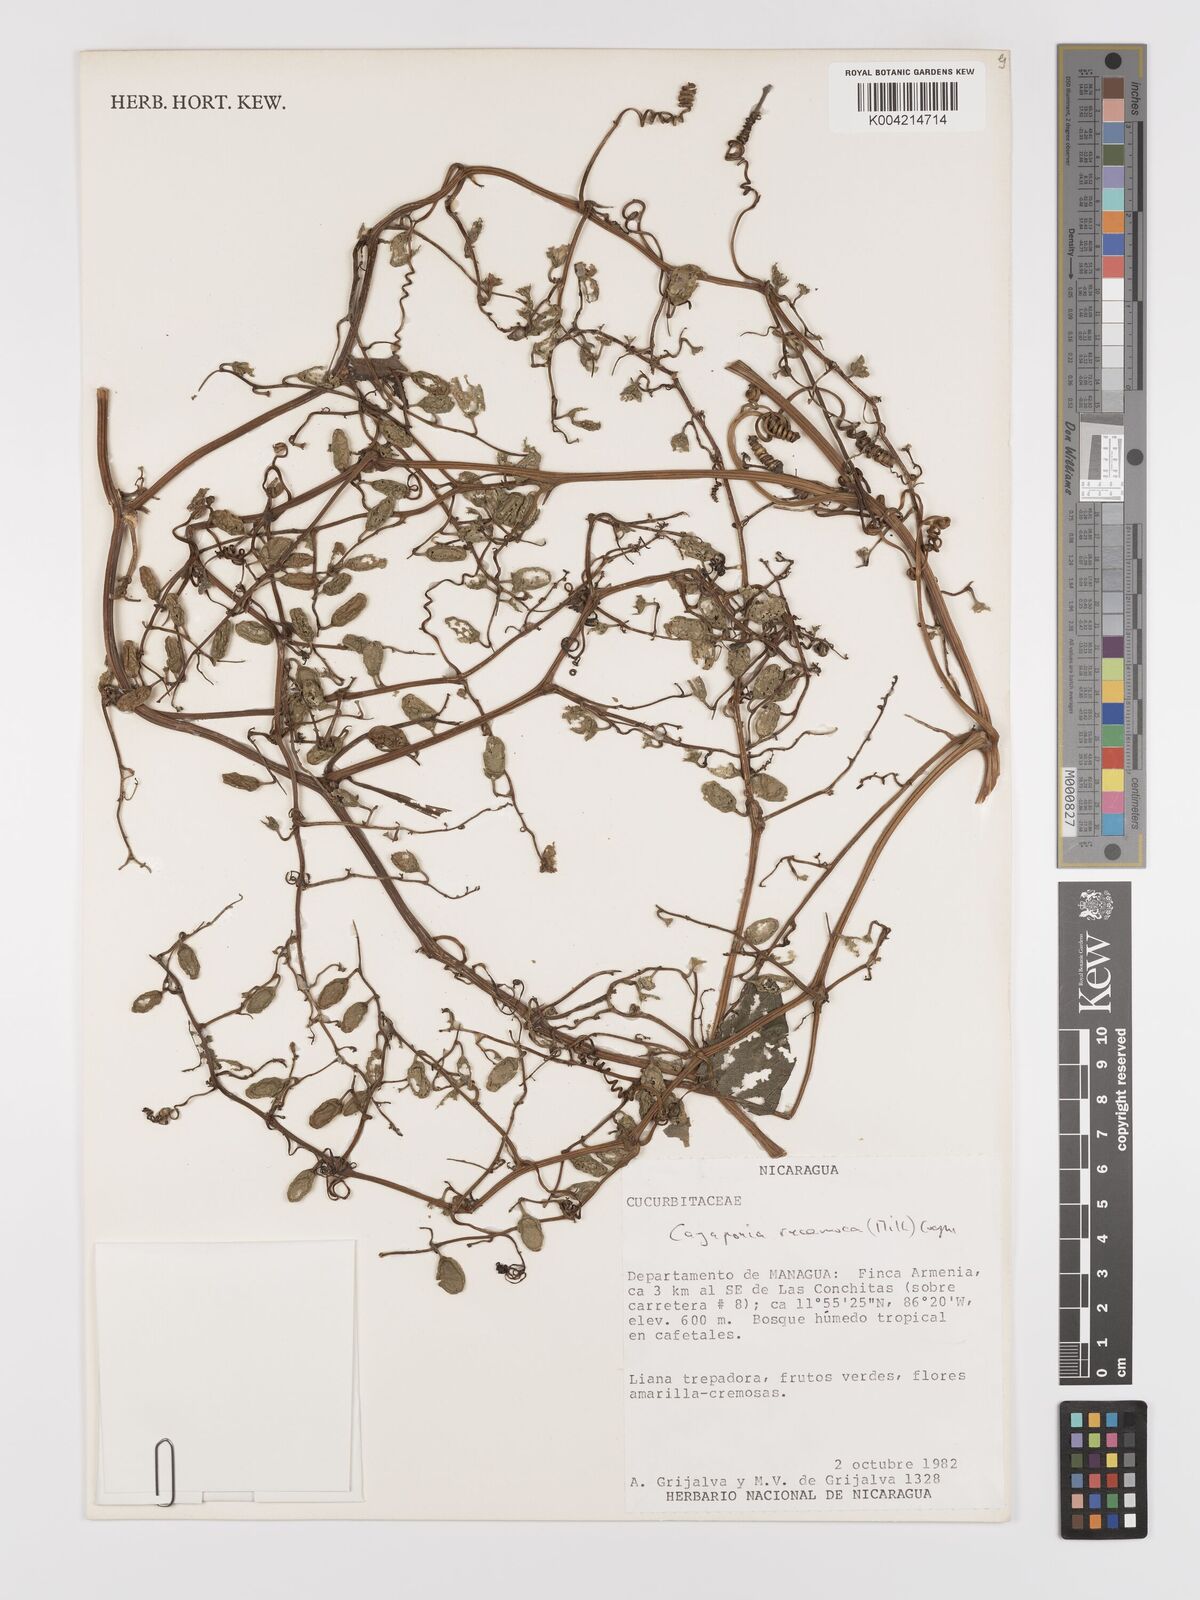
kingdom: Plantae
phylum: Tracheophyta
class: Magnoliopsida
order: Cucurbitales
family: Cucurbitaceae
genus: Cayaponia
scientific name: Cayaponia racemosa
